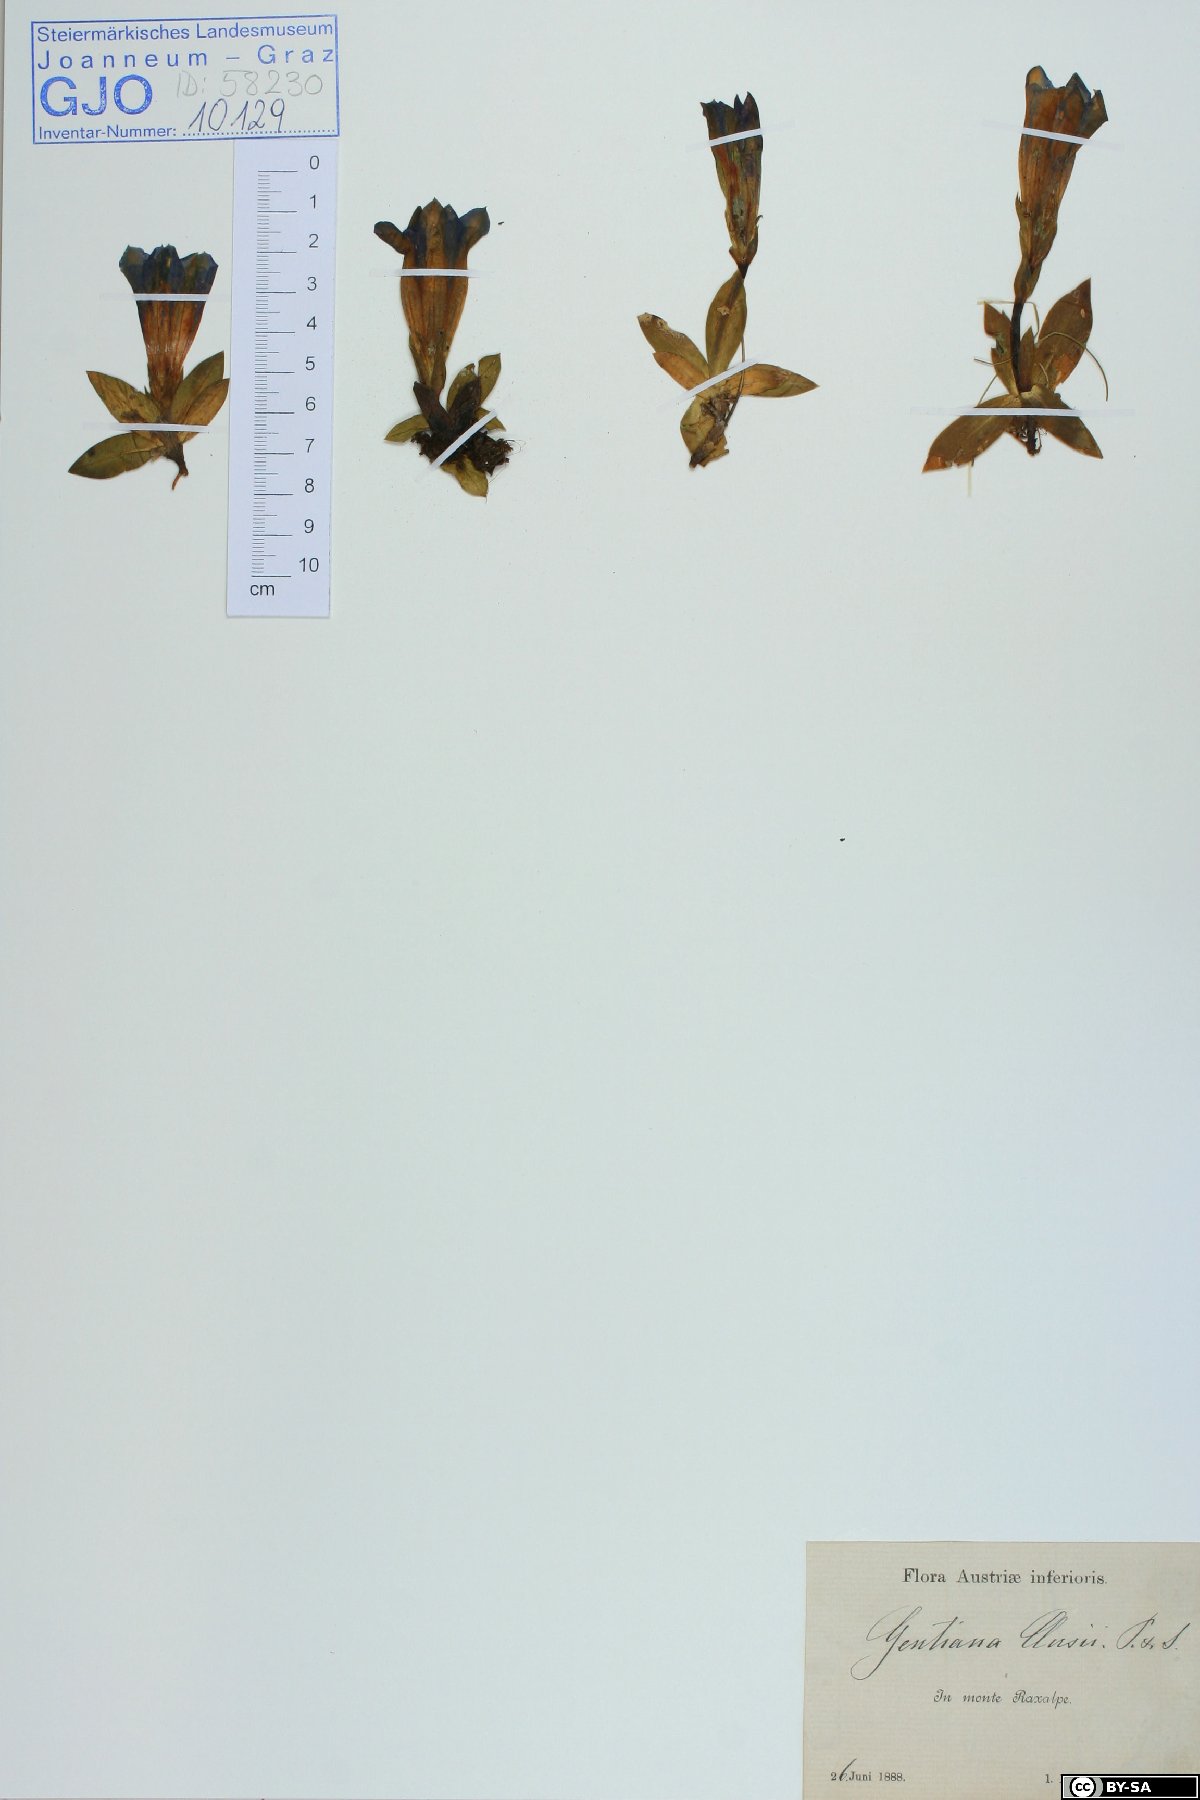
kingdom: Plantae
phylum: Tracheophyta
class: Magnoliopsida
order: Gentianales
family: Gentianaceae
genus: Gentiana
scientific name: Gentiana clusii
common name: Trumpet gentian
